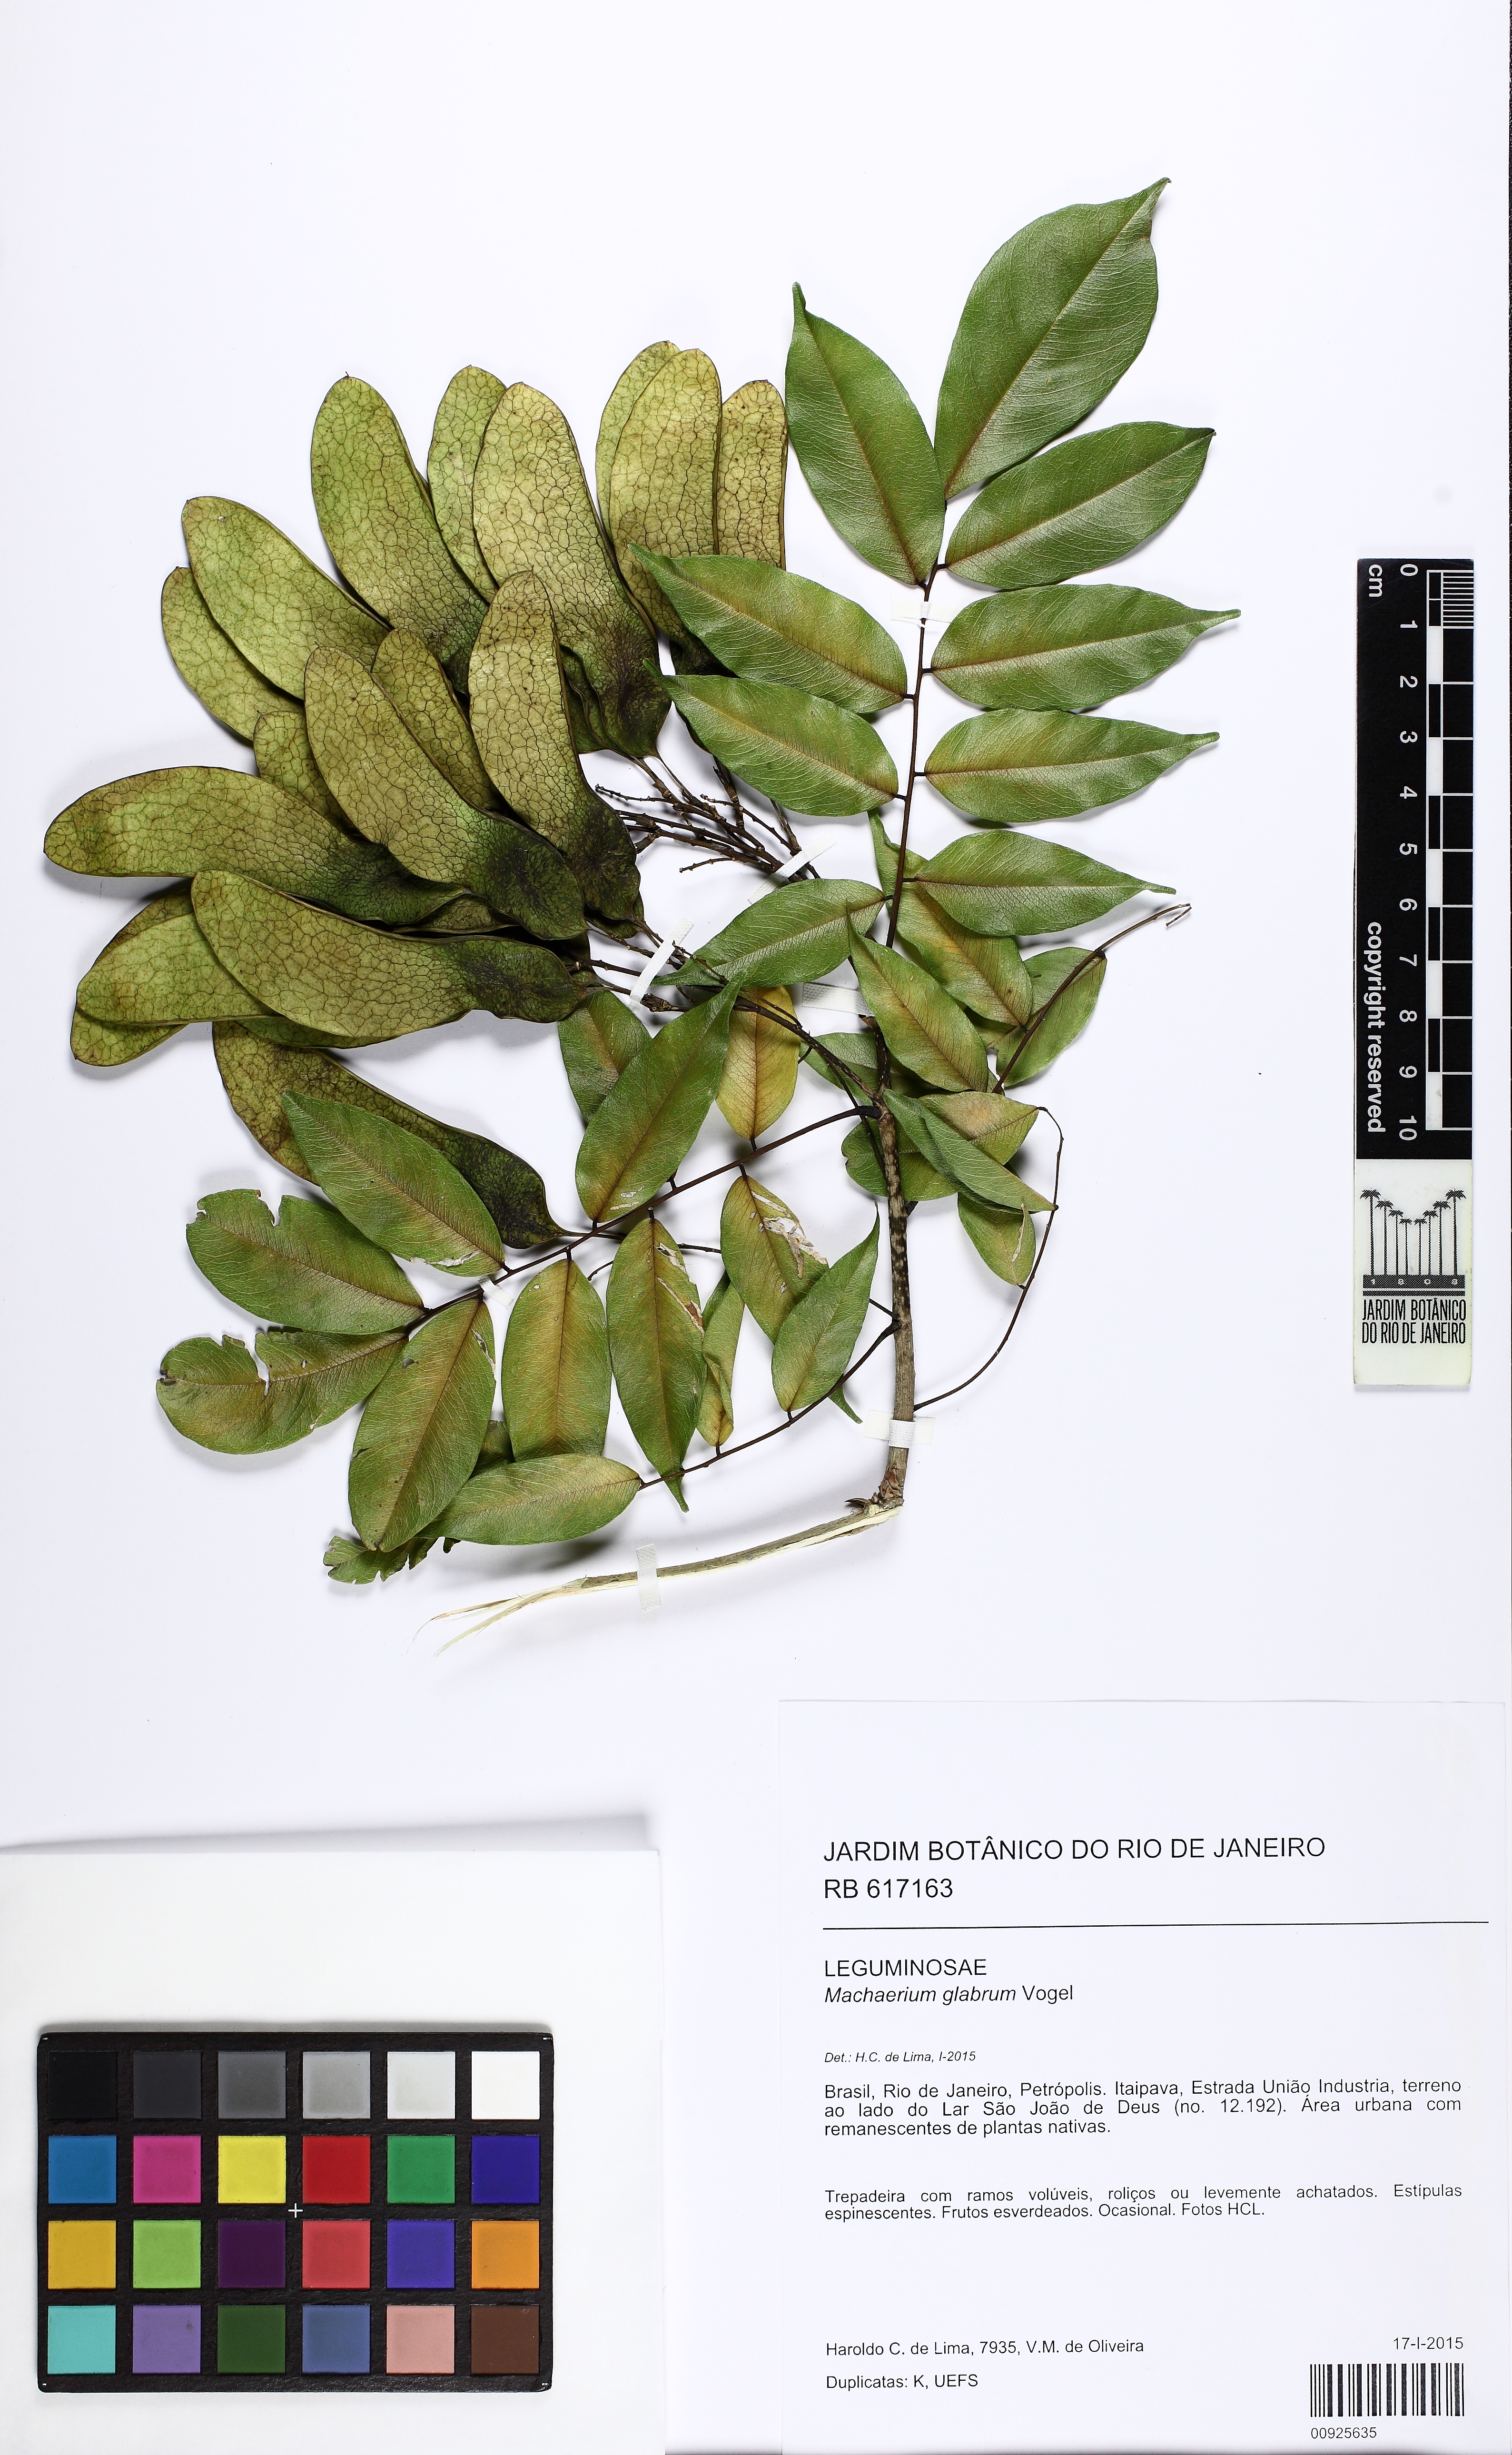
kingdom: Plantae
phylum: Tracheophyta
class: Magnoliopsida
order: Fabales
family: Fabaceae
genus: Machaerium
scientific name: Machaerium glabrum
